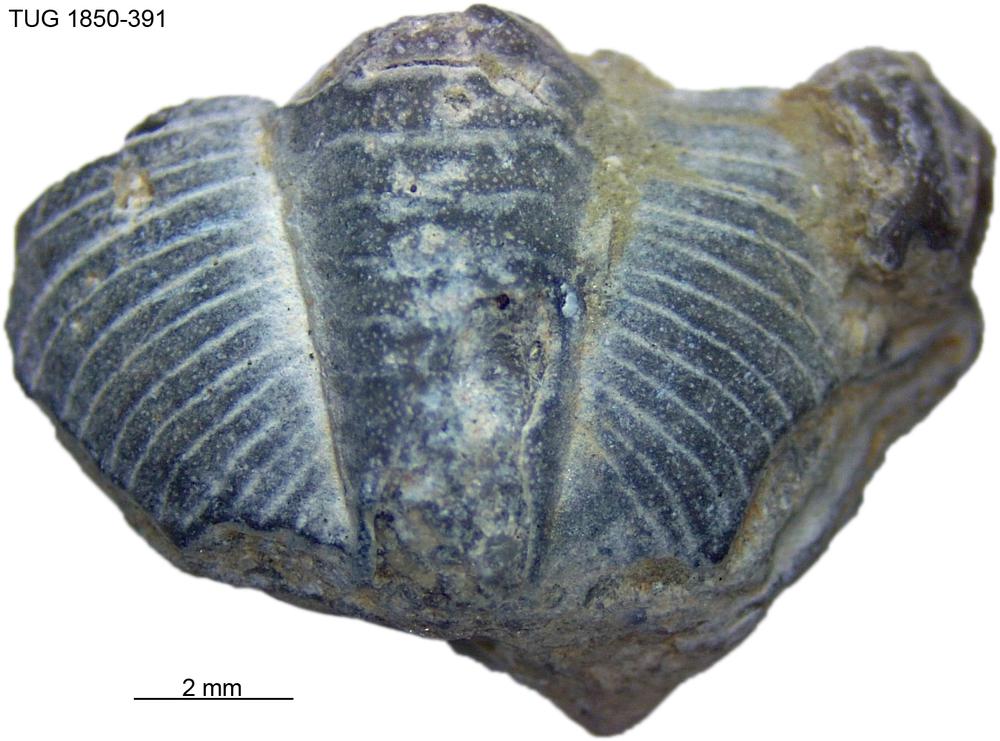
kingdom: Animalia
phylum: Arthropoda
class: Trilobita
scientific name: Trilobita
